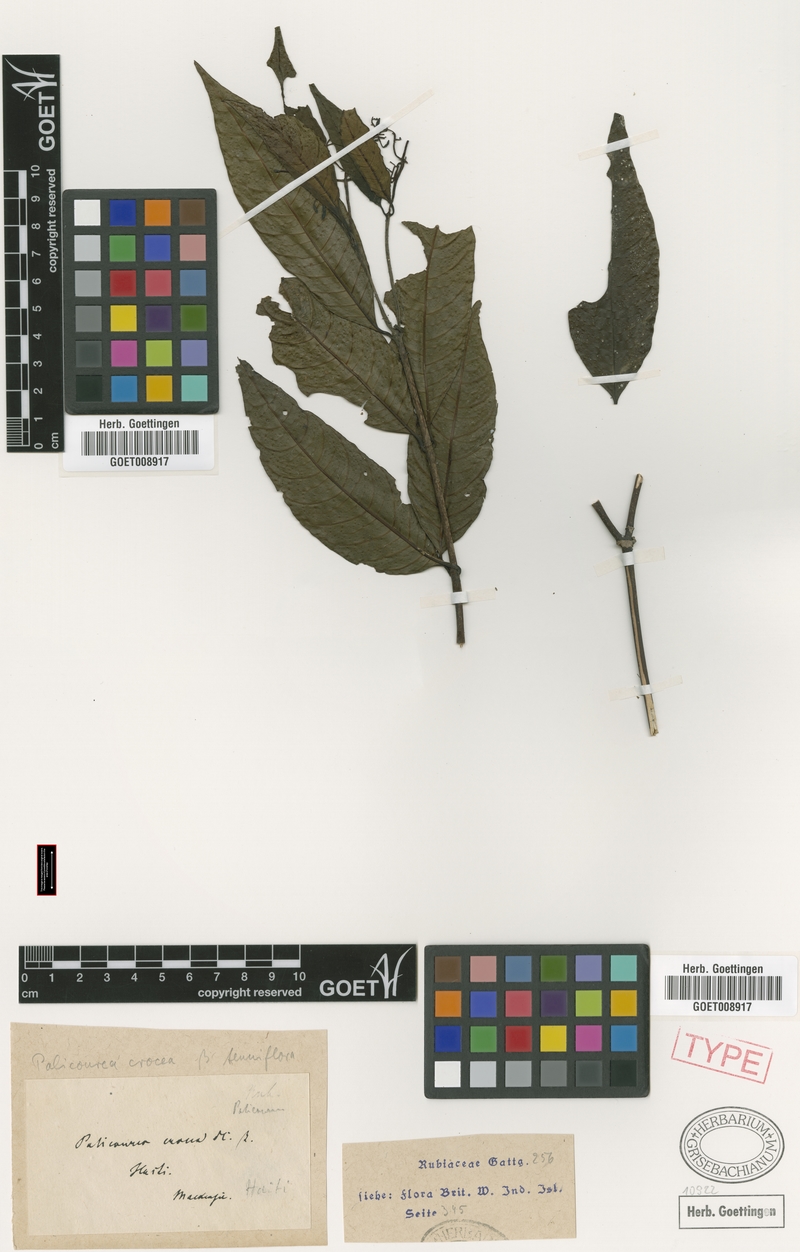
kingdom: Plantae
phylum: Tracheophyta
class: Magnoliopsida
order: Gentianales
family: Rubiaceae
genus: Palicourea
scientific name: Palicourea crocea
